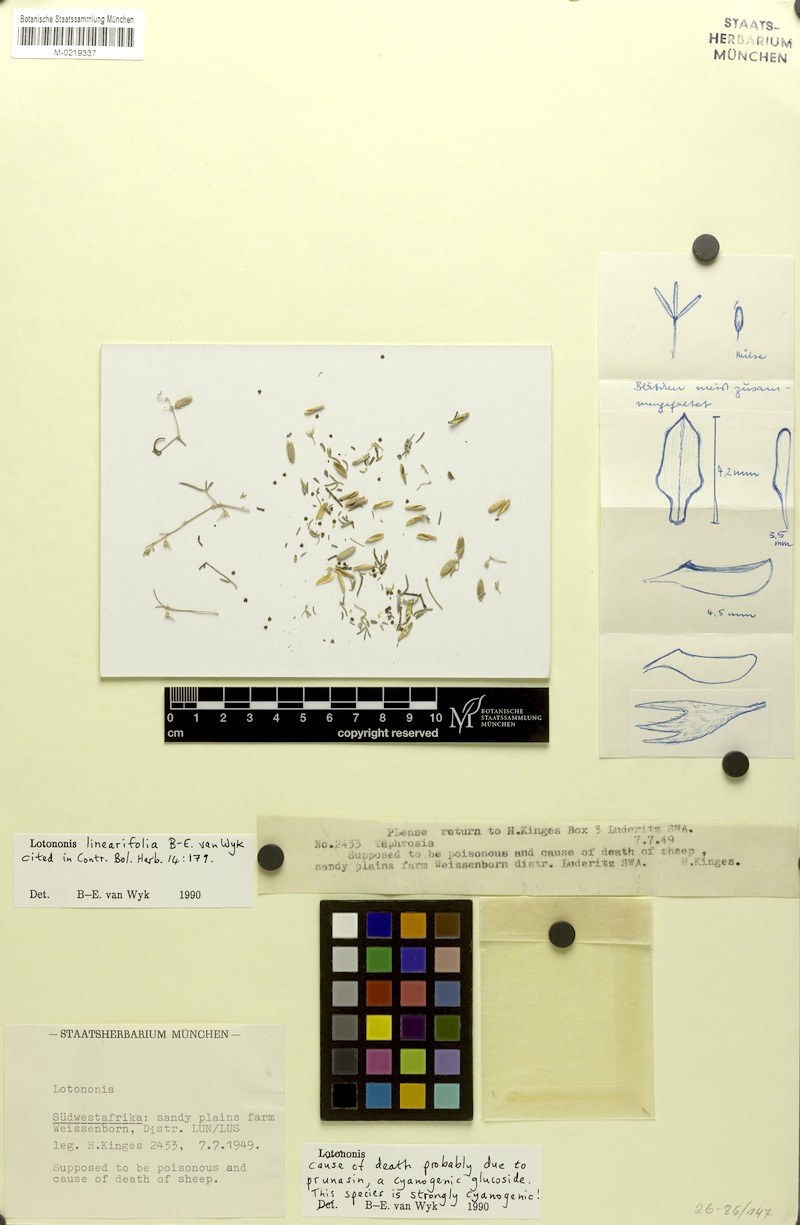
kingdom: Plantae
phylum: Tracheophyta
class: Magnoliopsida
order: Fabales
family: Fabaceae
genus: Lotononis
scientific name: Lotononis linearifolia
